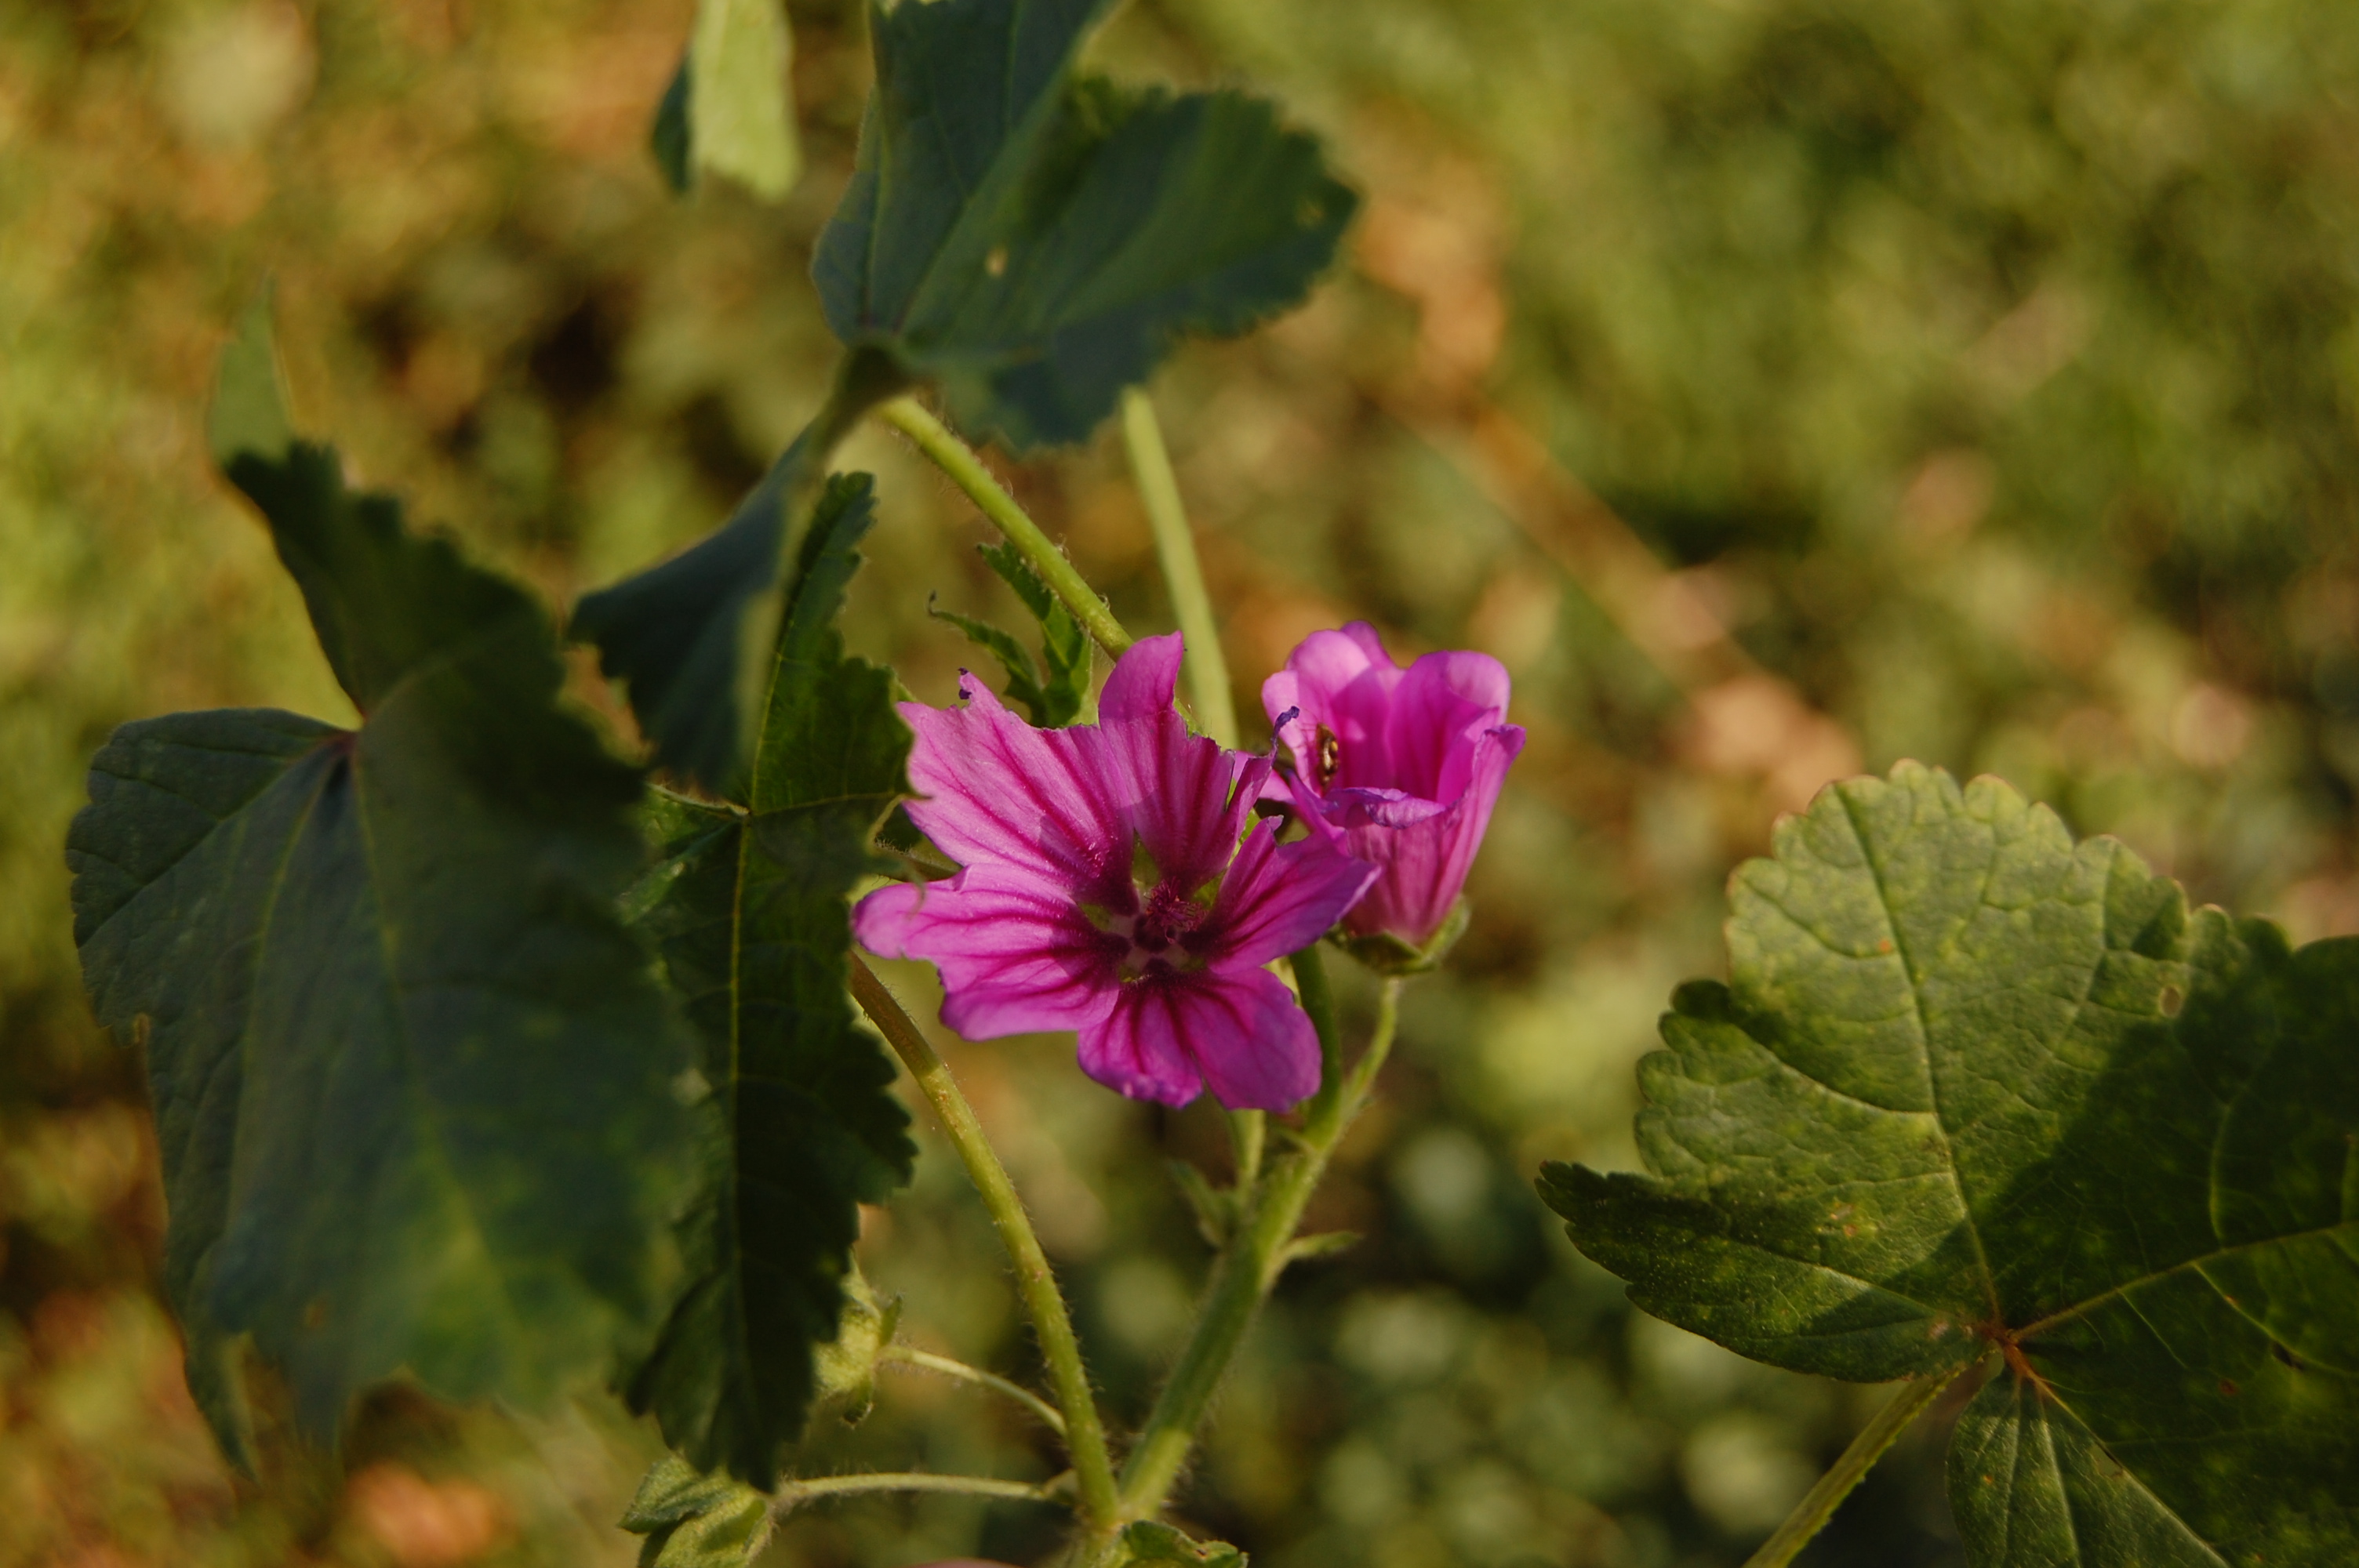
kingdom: Plantae
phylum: Tracheophyta
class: Magnoliopsida
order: Malvales
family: Malvaceae
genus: Malva
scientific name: Malva sylvestris
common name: Common mallow
